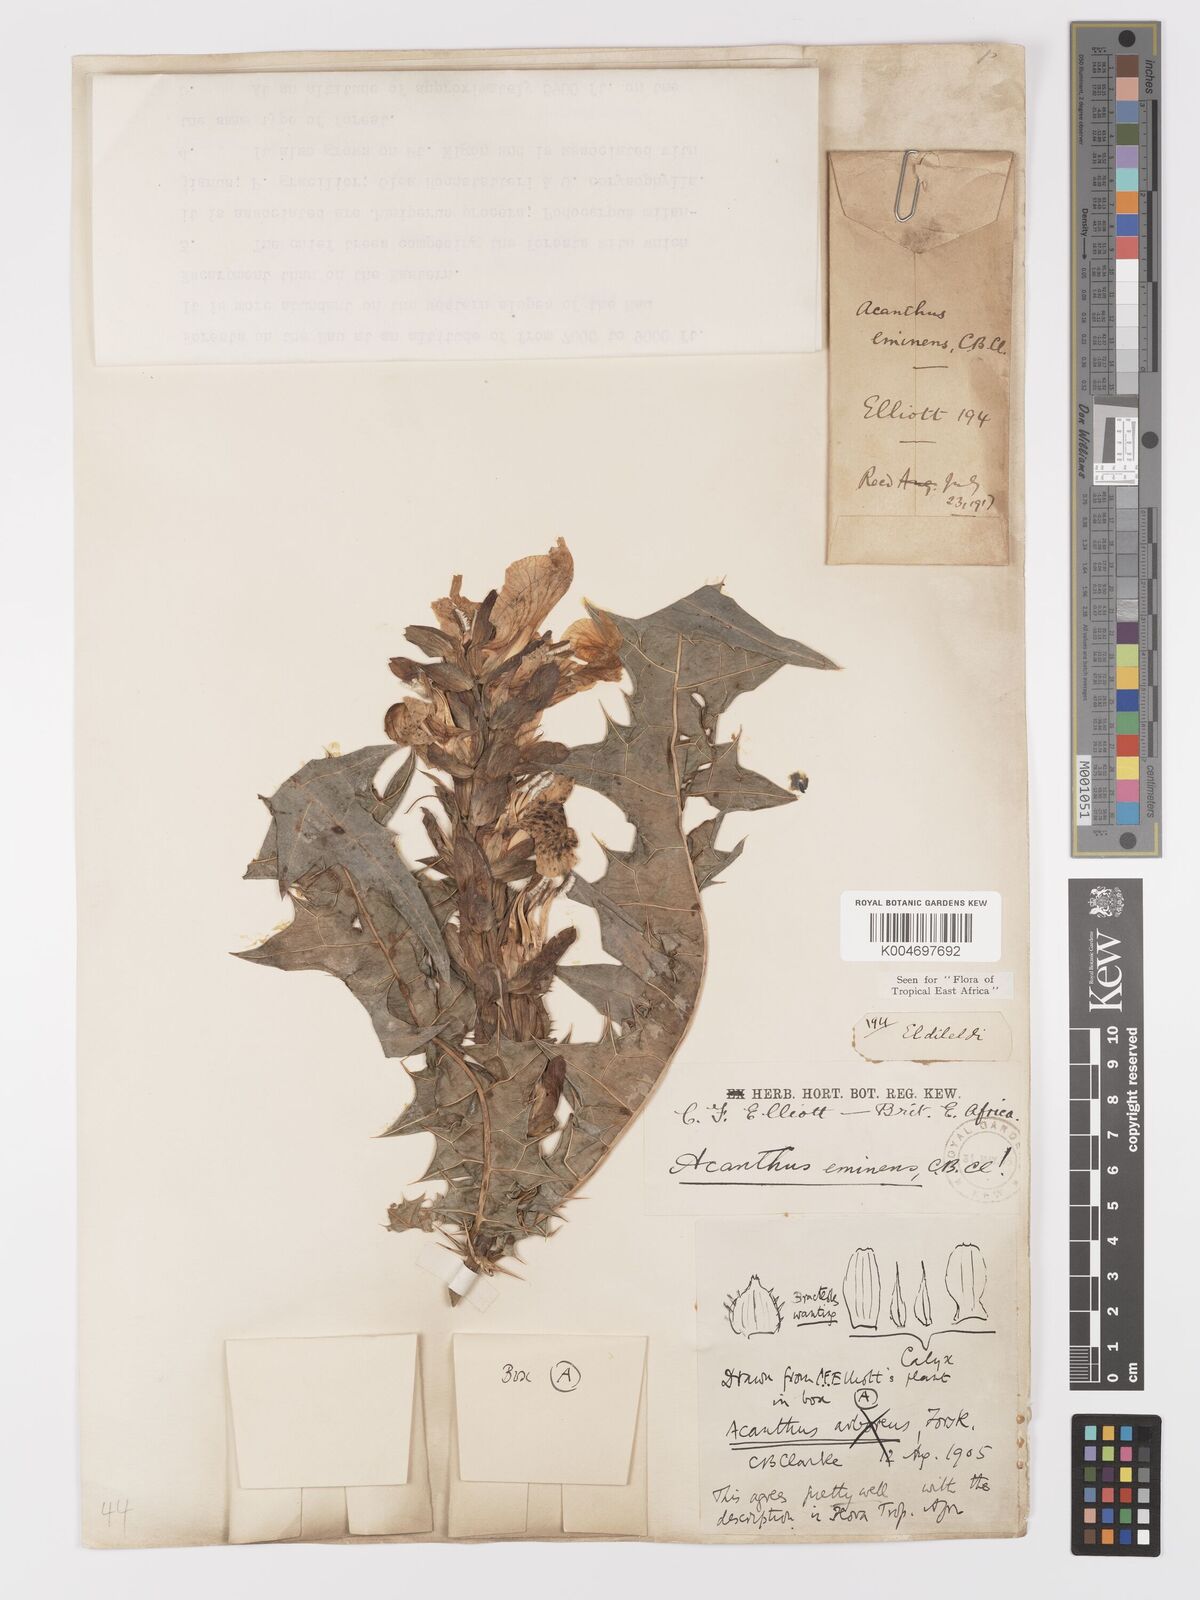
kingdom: Plantae
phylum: Tracheophyta
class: Magnoliopsida
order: Lamiales
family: Acanthaceae
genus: Acanthus
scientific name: Acanthus eminens
